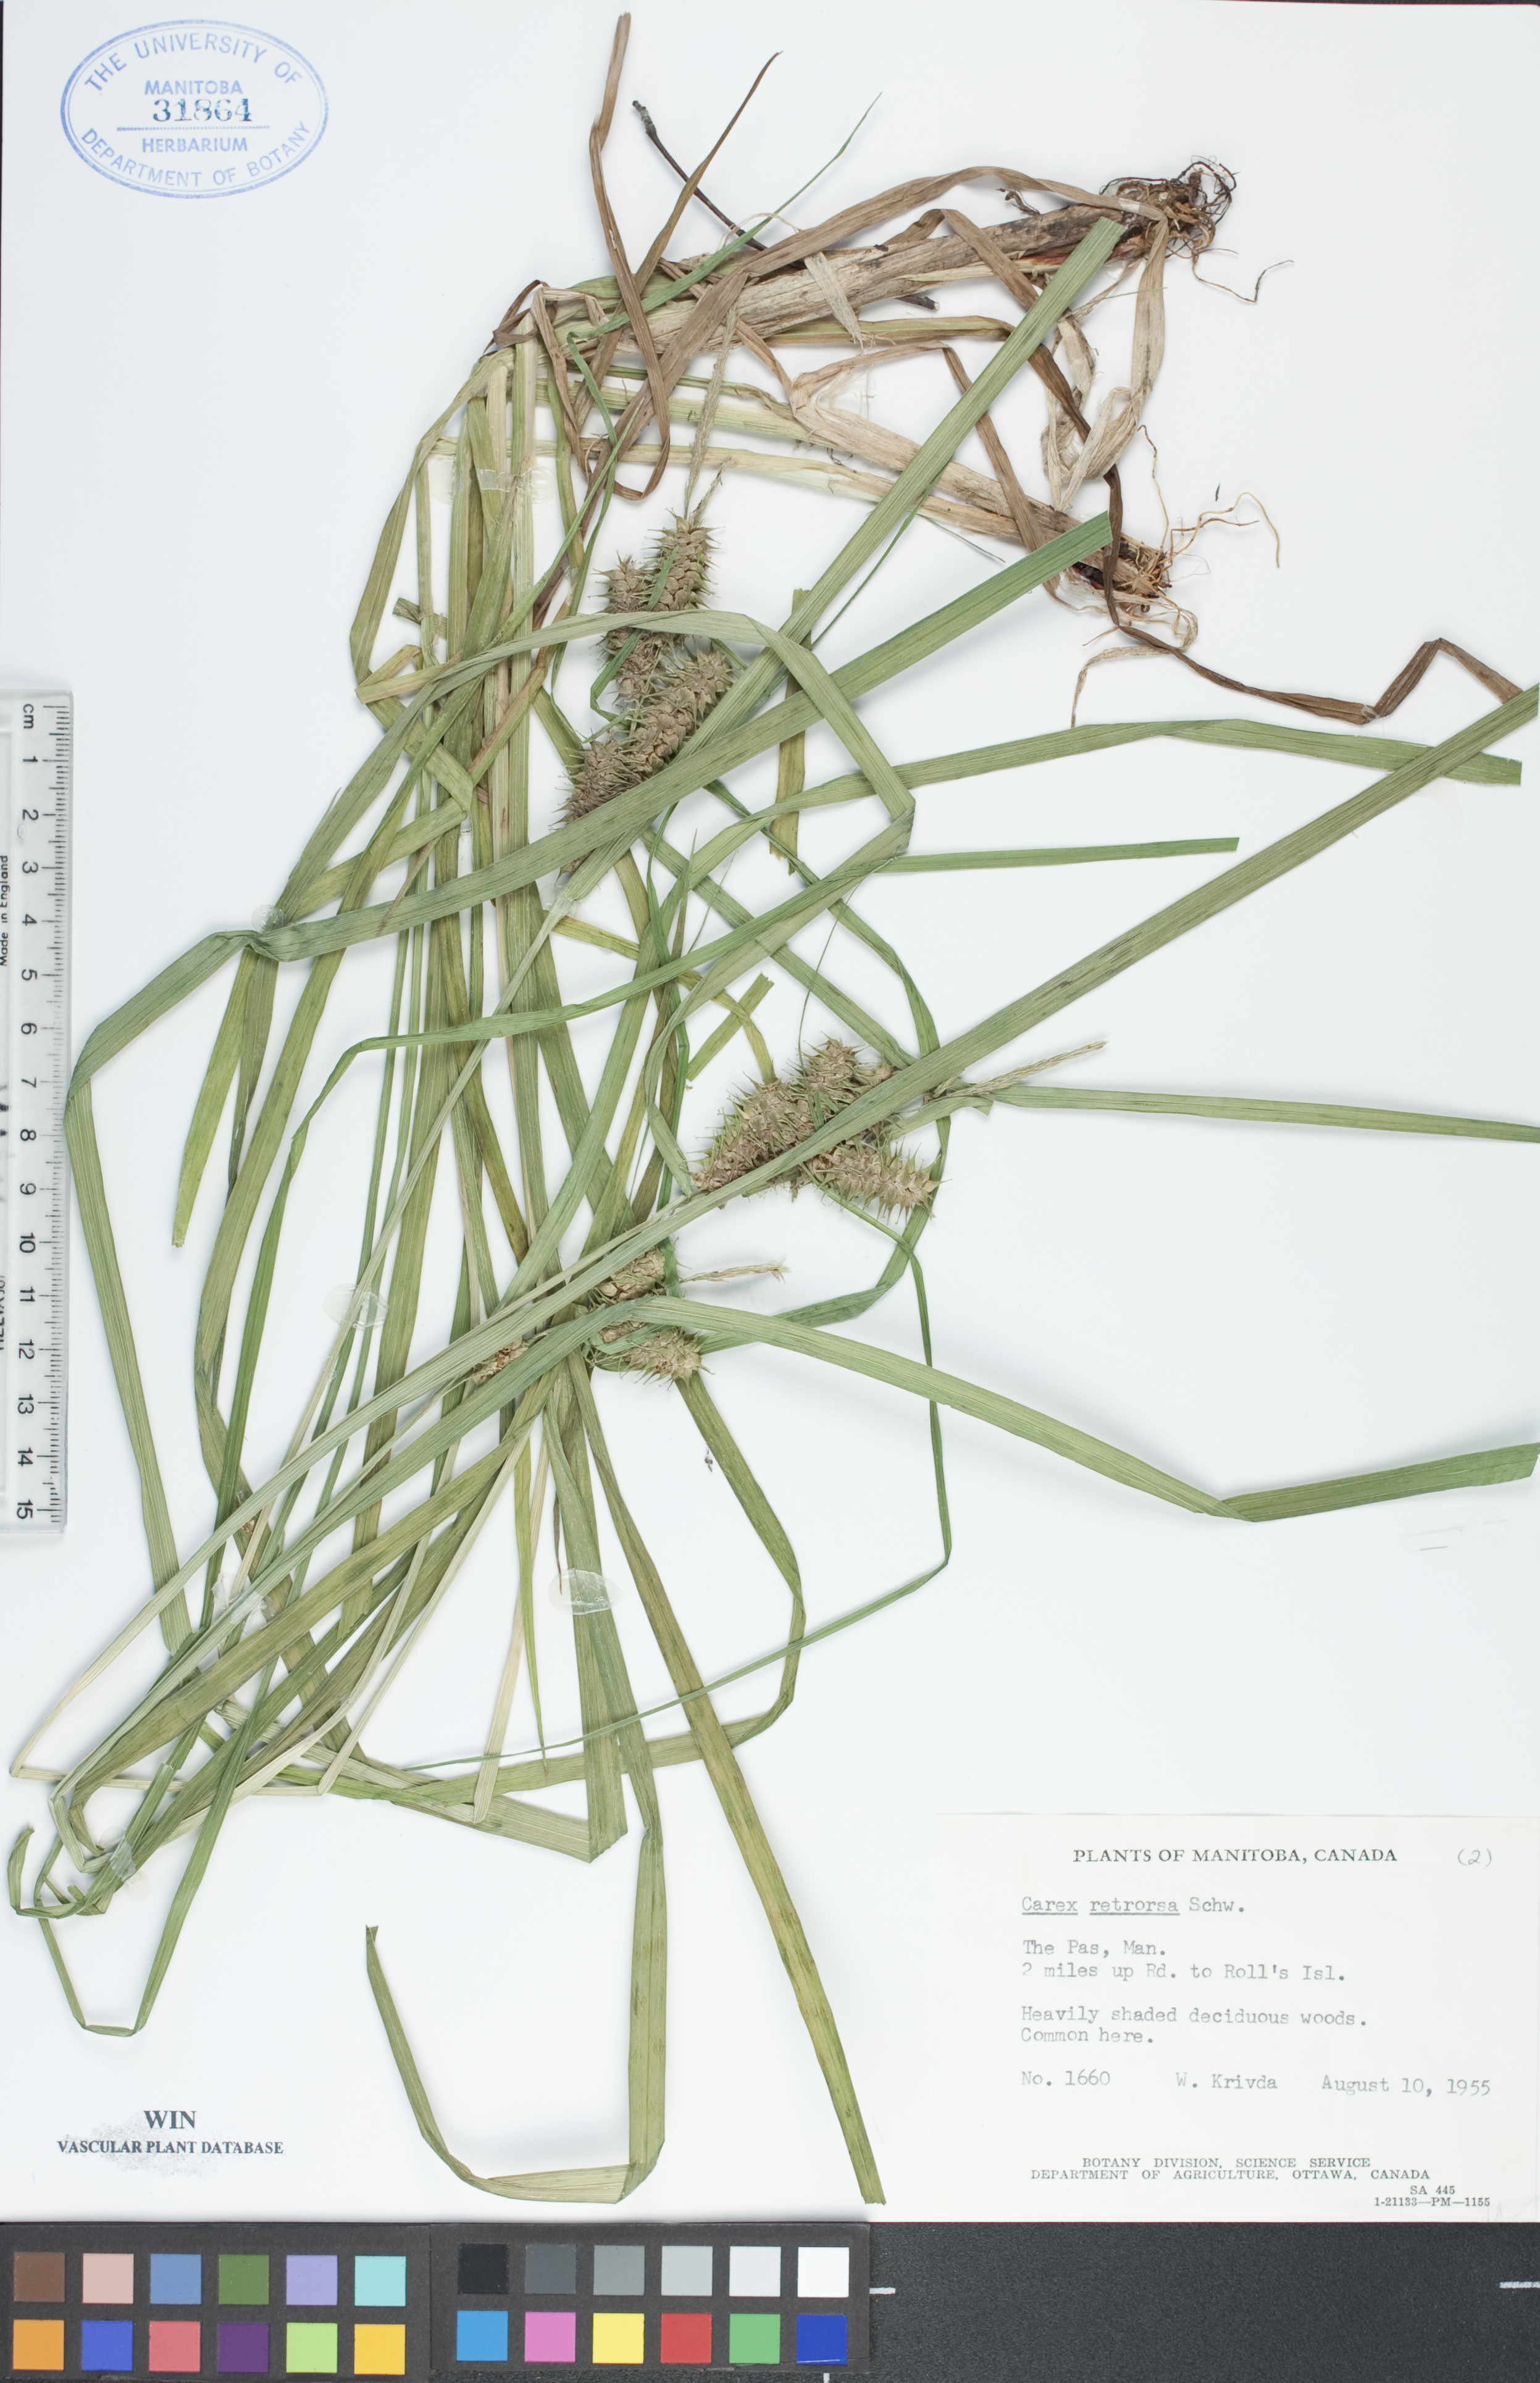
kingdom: Plantae
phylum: Tracheophyta
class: Liliopsida
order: Poales
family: Cyperaceae
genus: Carex
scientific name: Carex retrorsa
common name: Knot-sheath sedge
